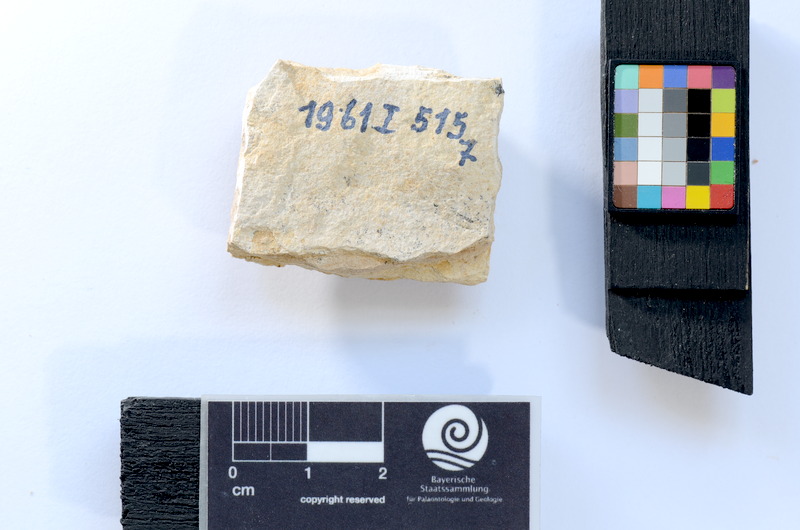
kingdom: Animalia
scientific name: Animalia
